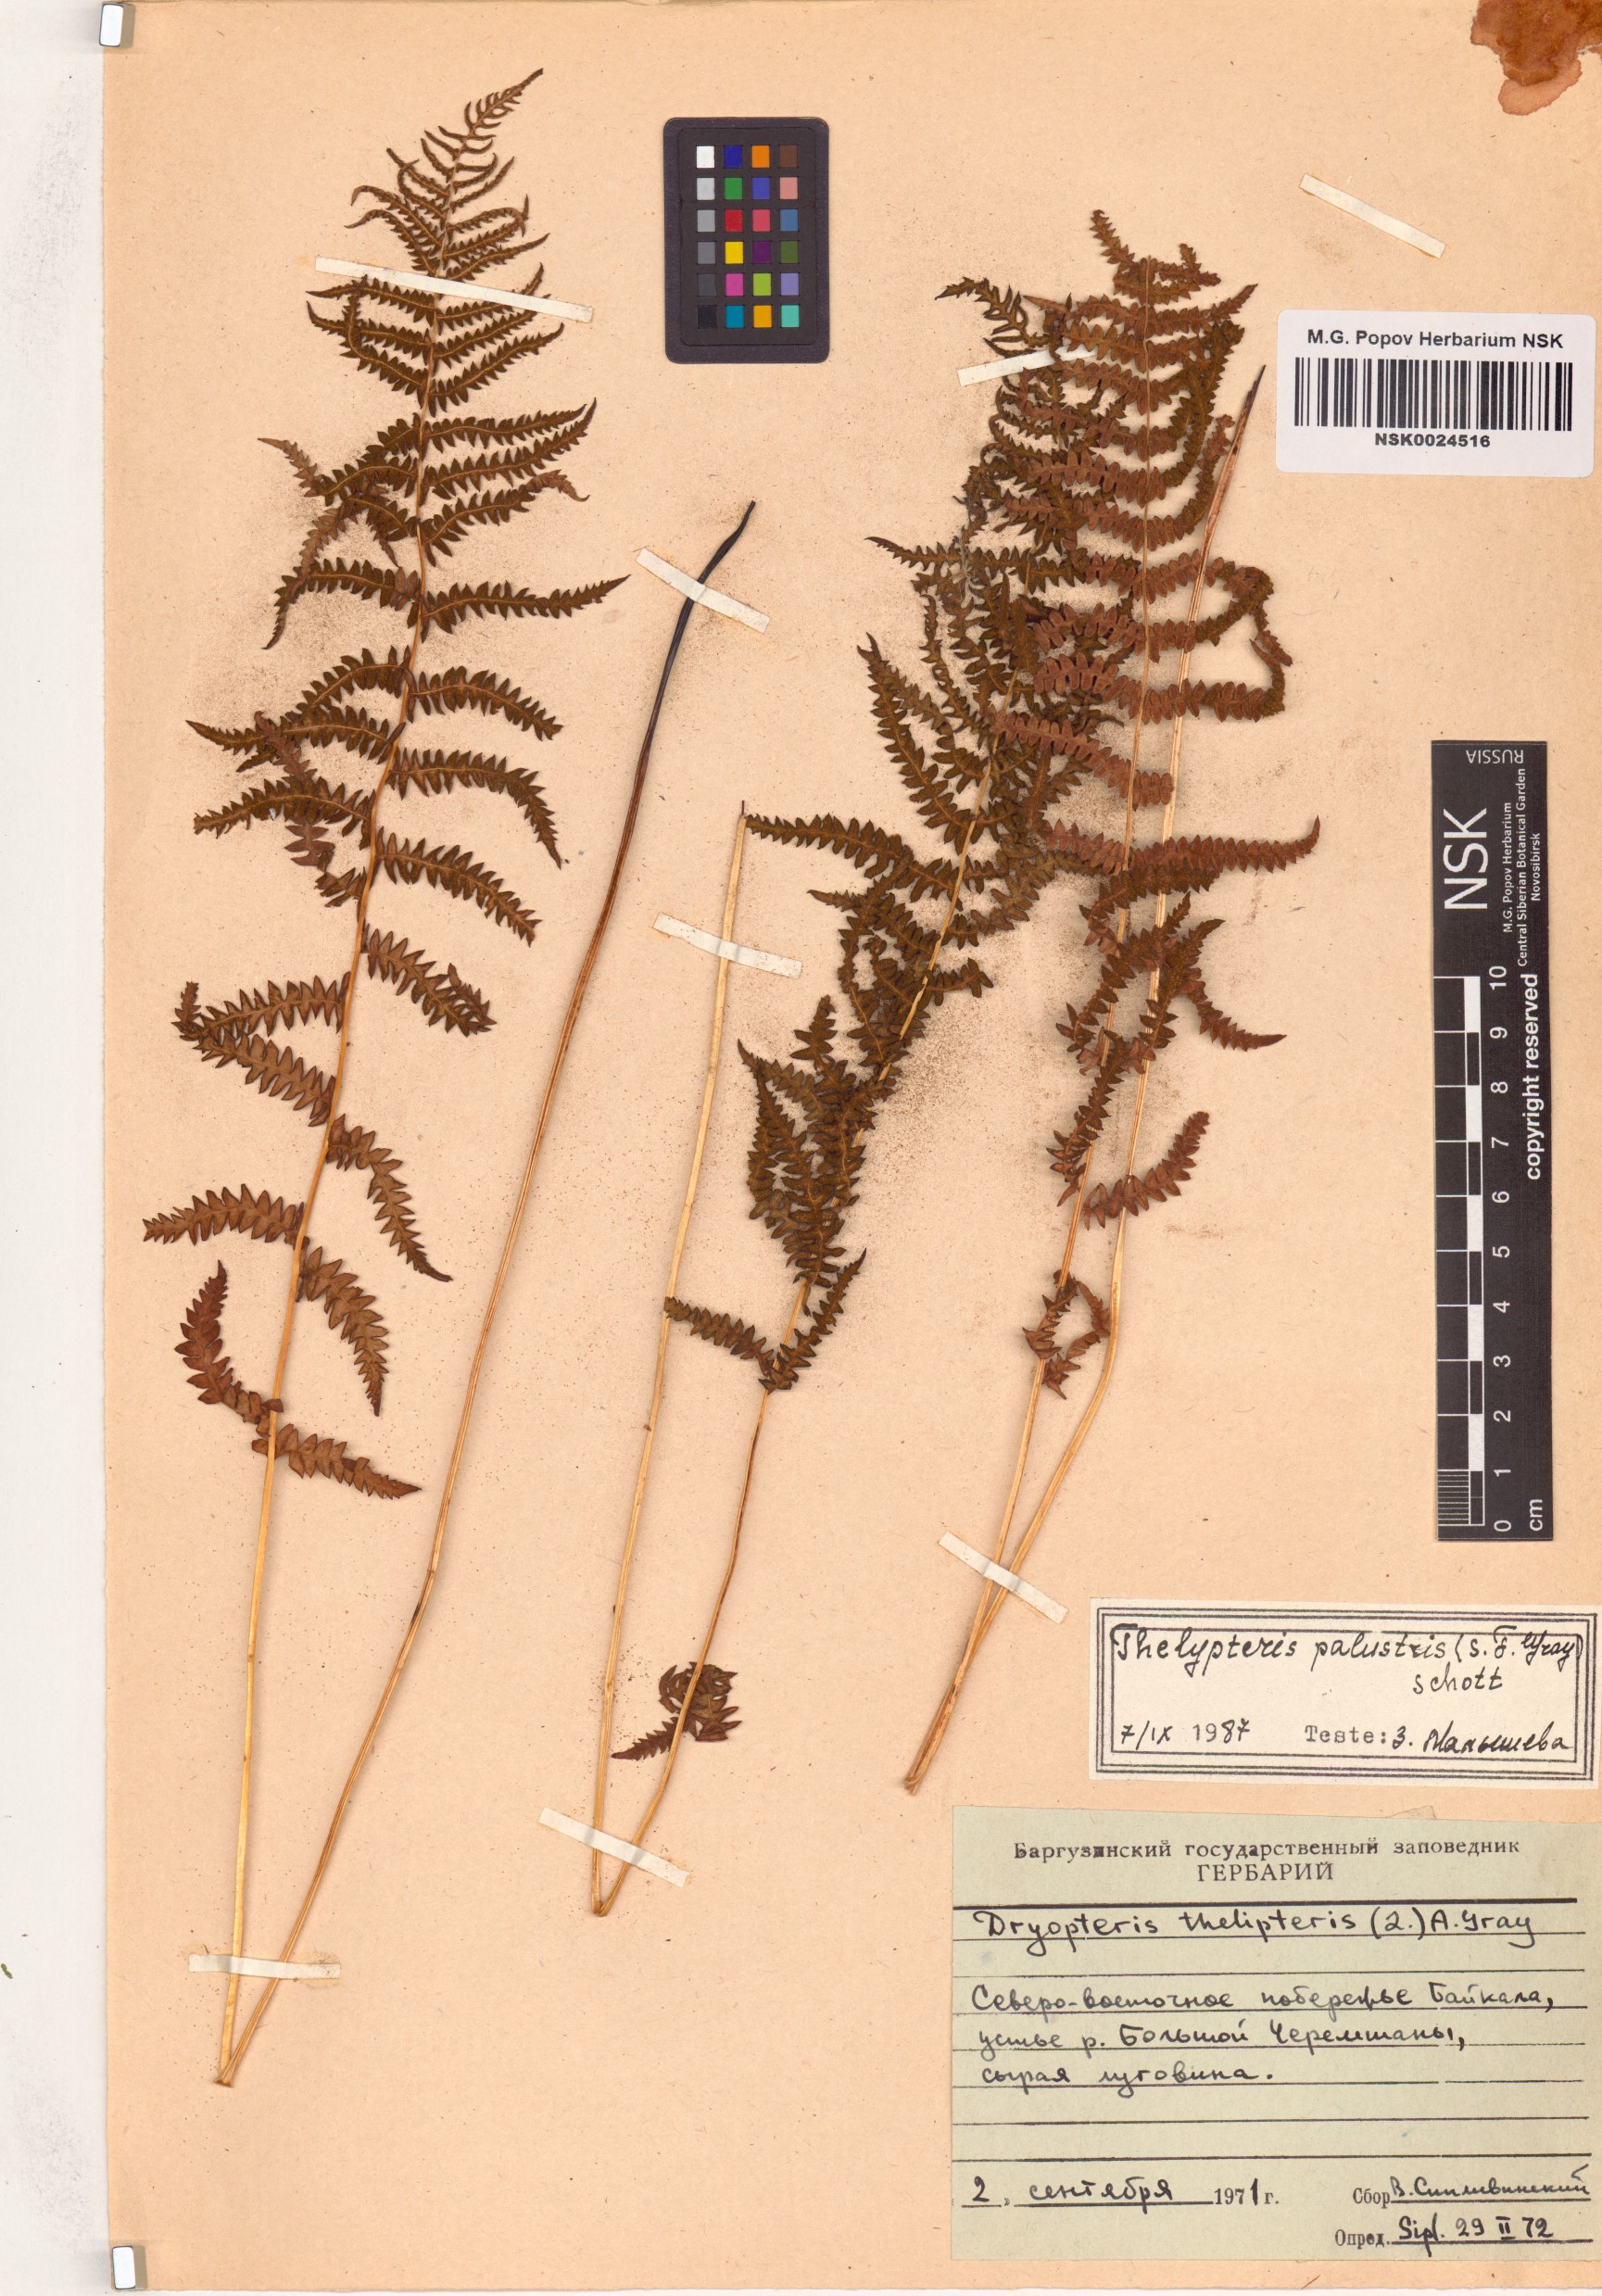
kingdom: Plantae
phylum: Tracheophyta
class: Polypodiopsida
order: Polypodiales
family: Thelypteridaceae
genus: Thelypteris
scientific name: Thelypteris palustris
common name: Marsh fern
